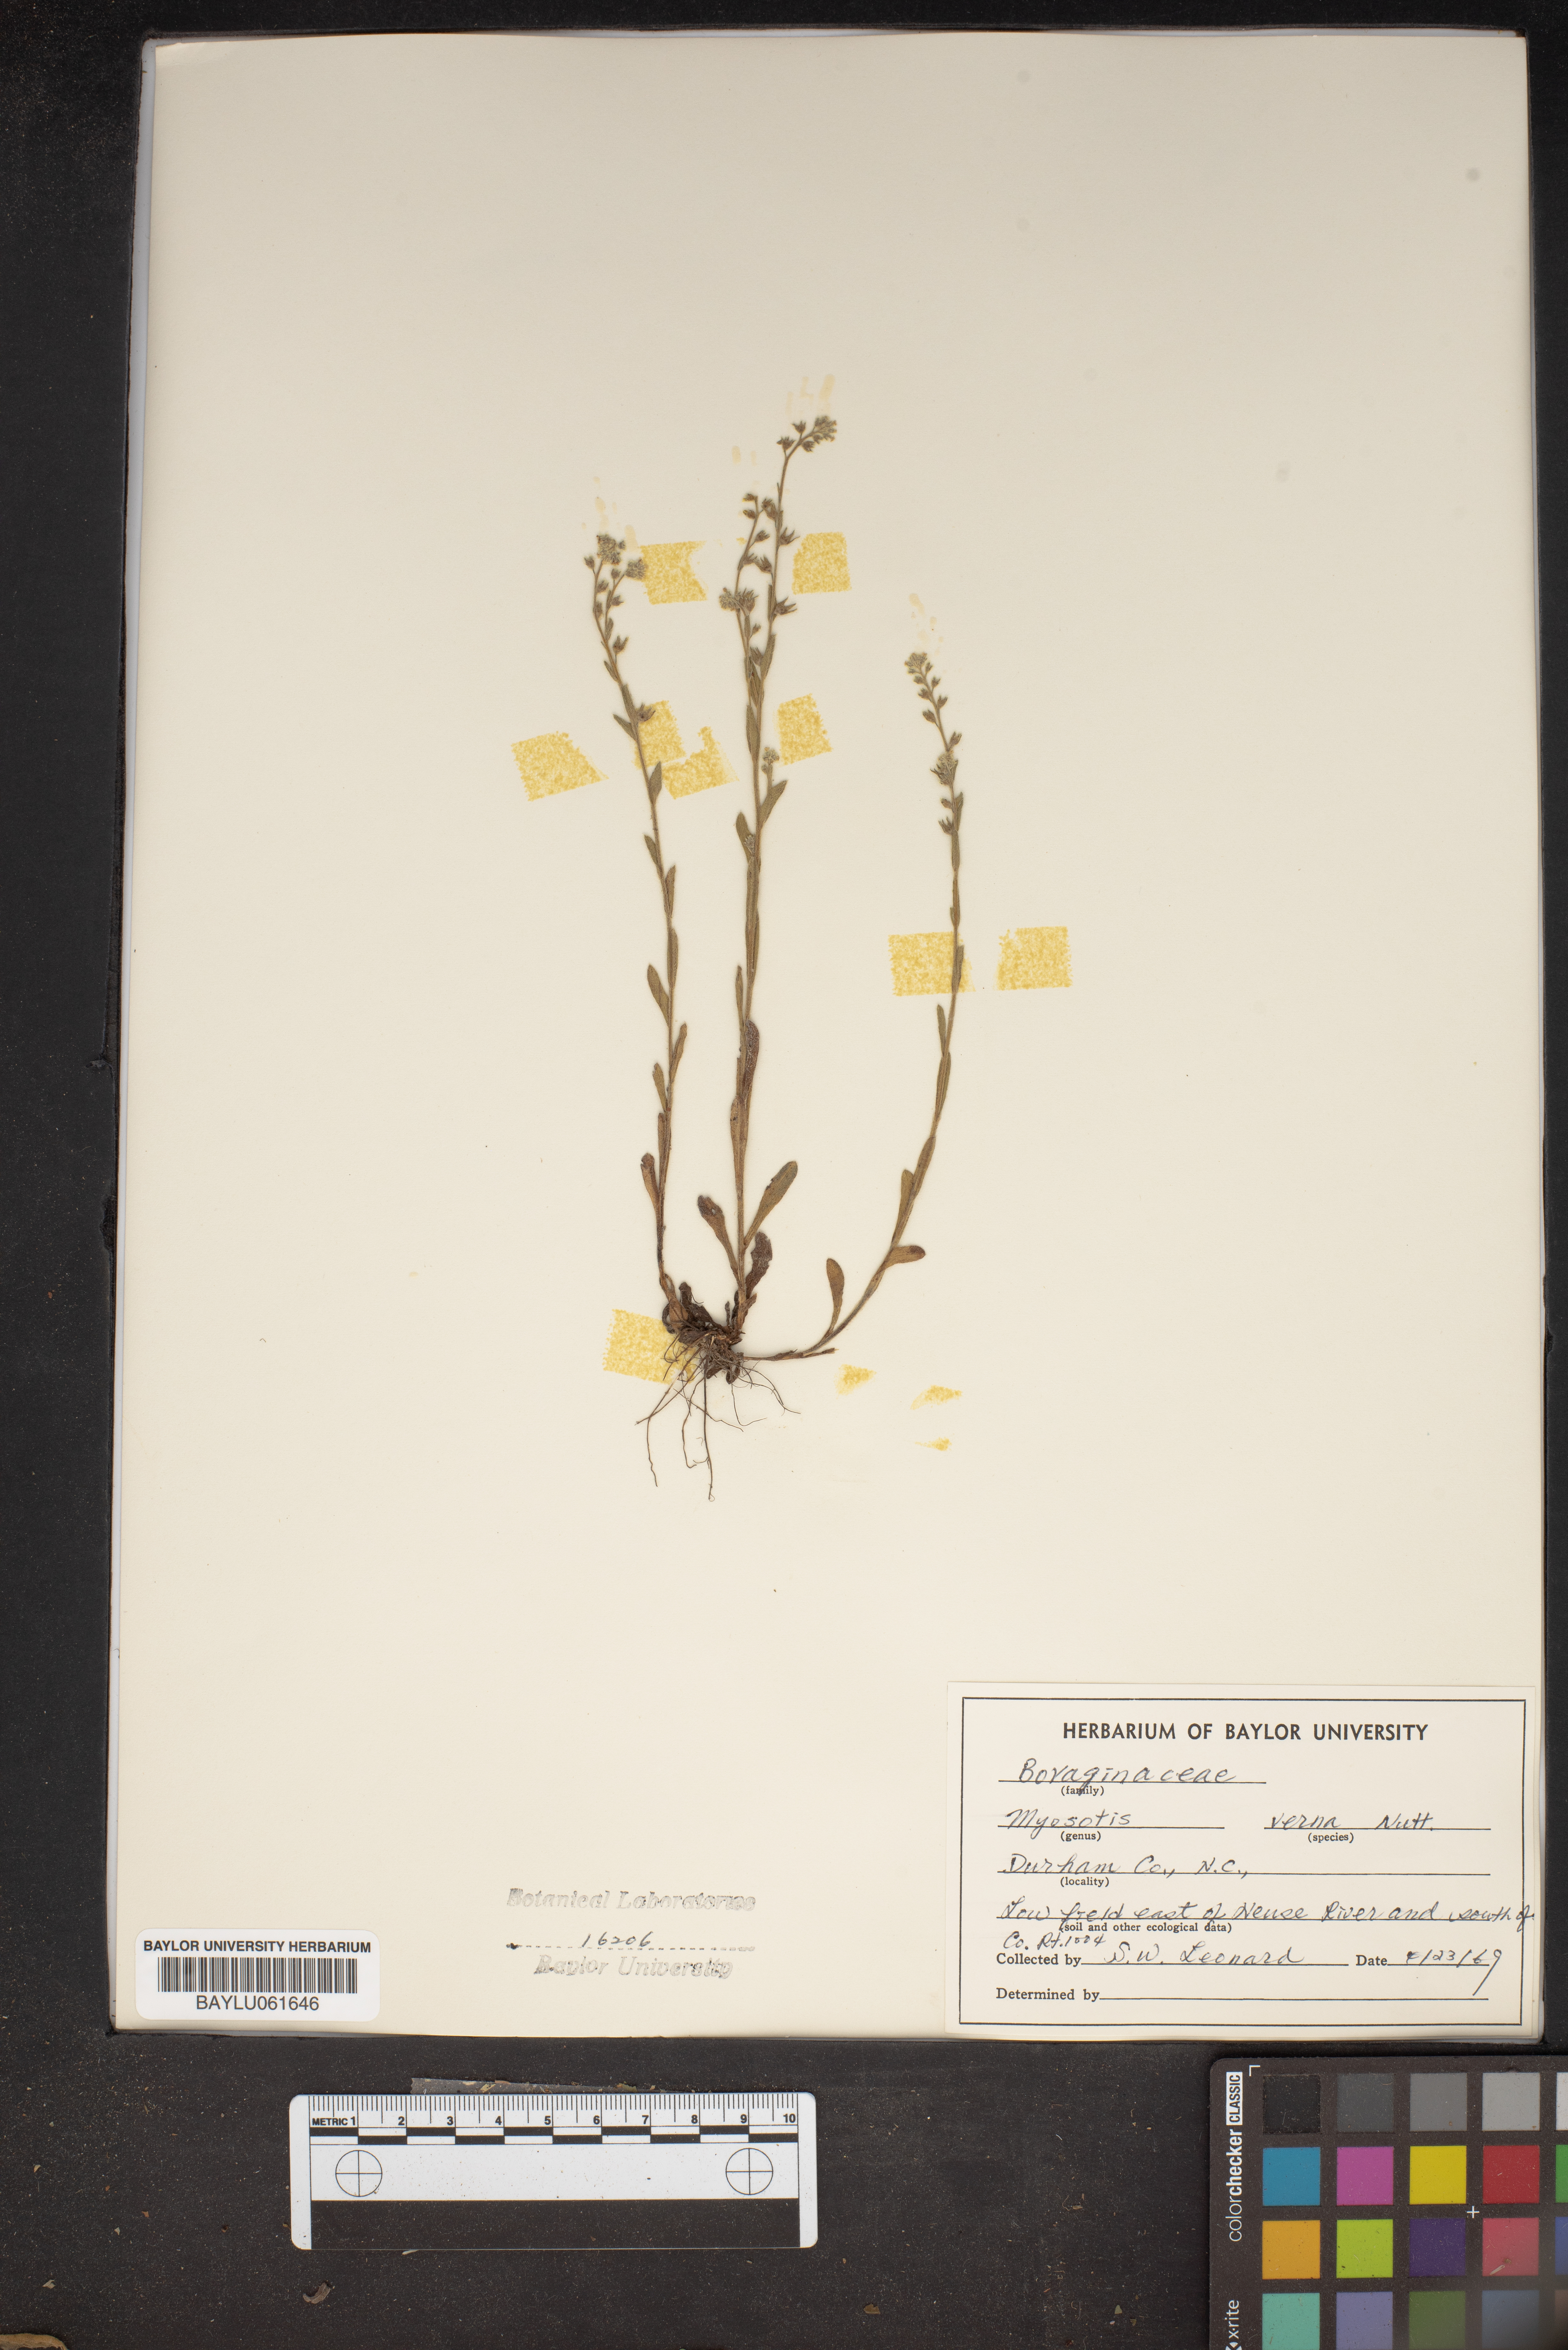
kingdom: Plantae
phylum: Tracheophyta
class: Magnoliopsida
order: Boraginales
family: Boraginaceae
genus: Myosotis
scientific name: Myosotis verna
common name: Early forget-me-not
